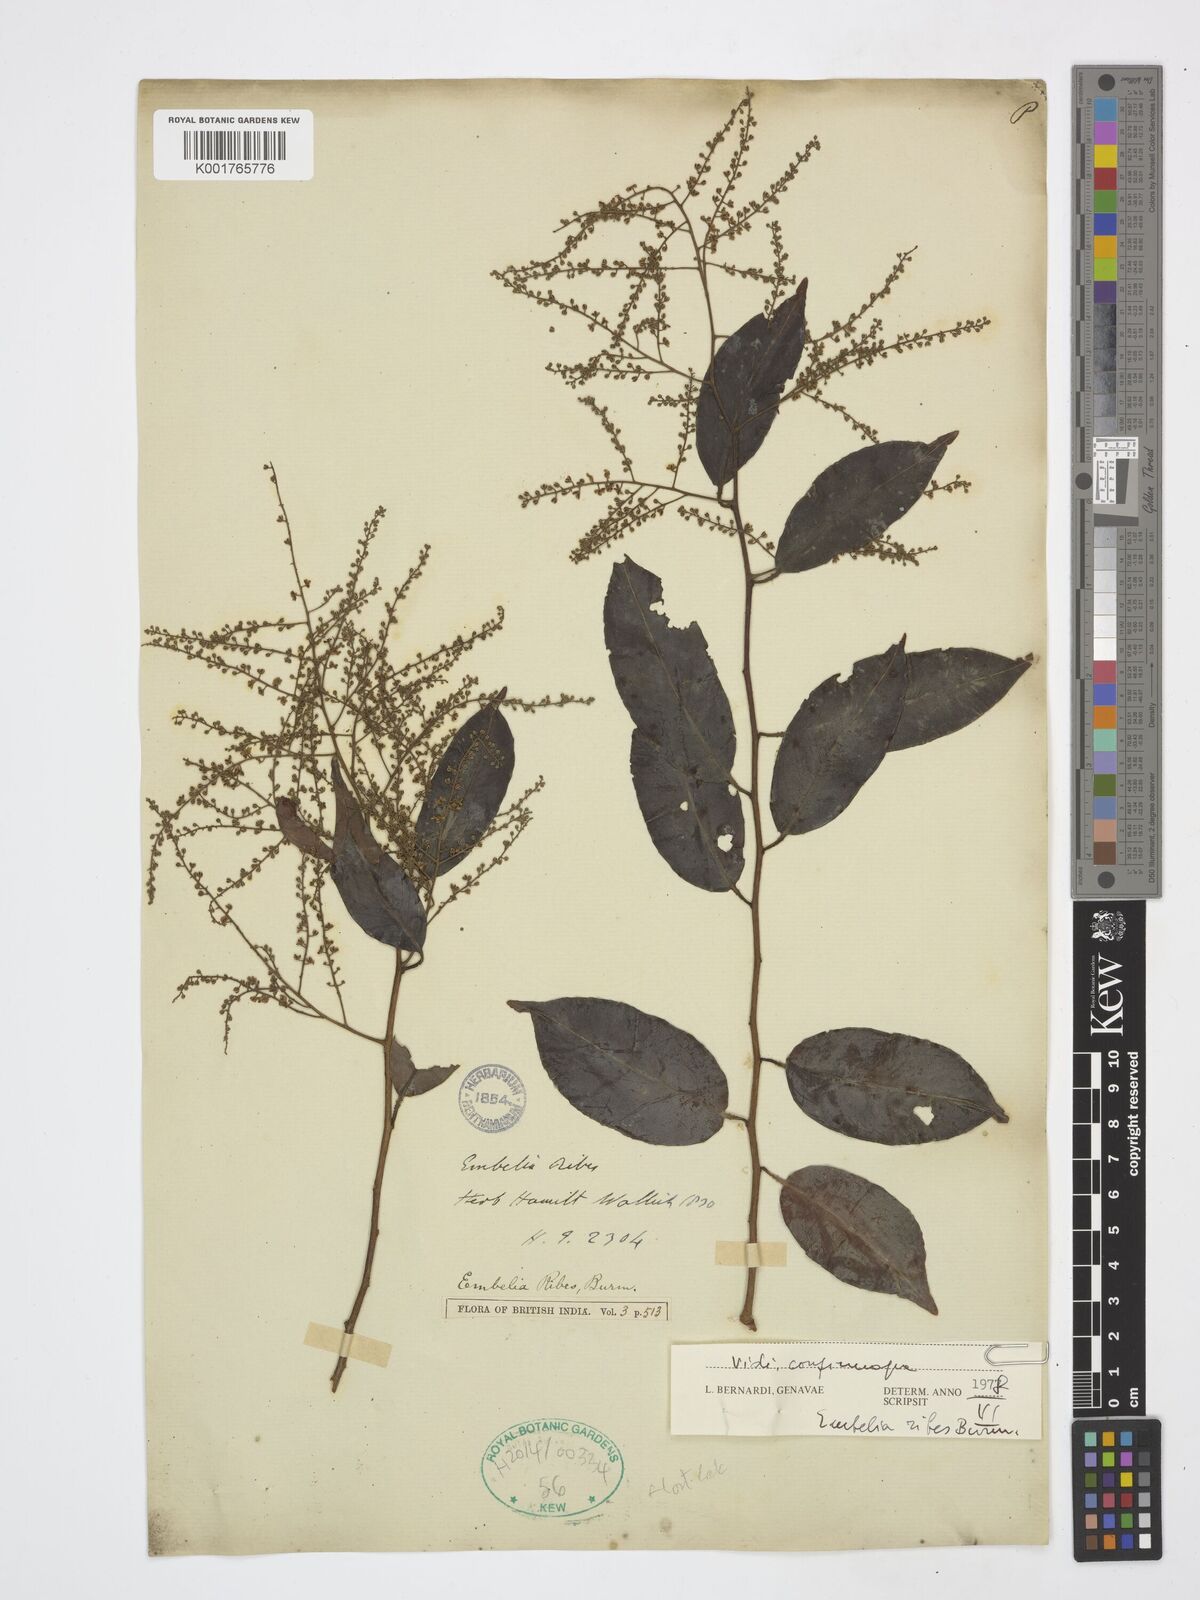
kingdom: Plantae
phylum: Tracheophyta
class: Magnoliopsida
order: Ericales
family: Primulaceae
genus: Embelia
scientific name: Embelia ribes
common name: Vidanga
